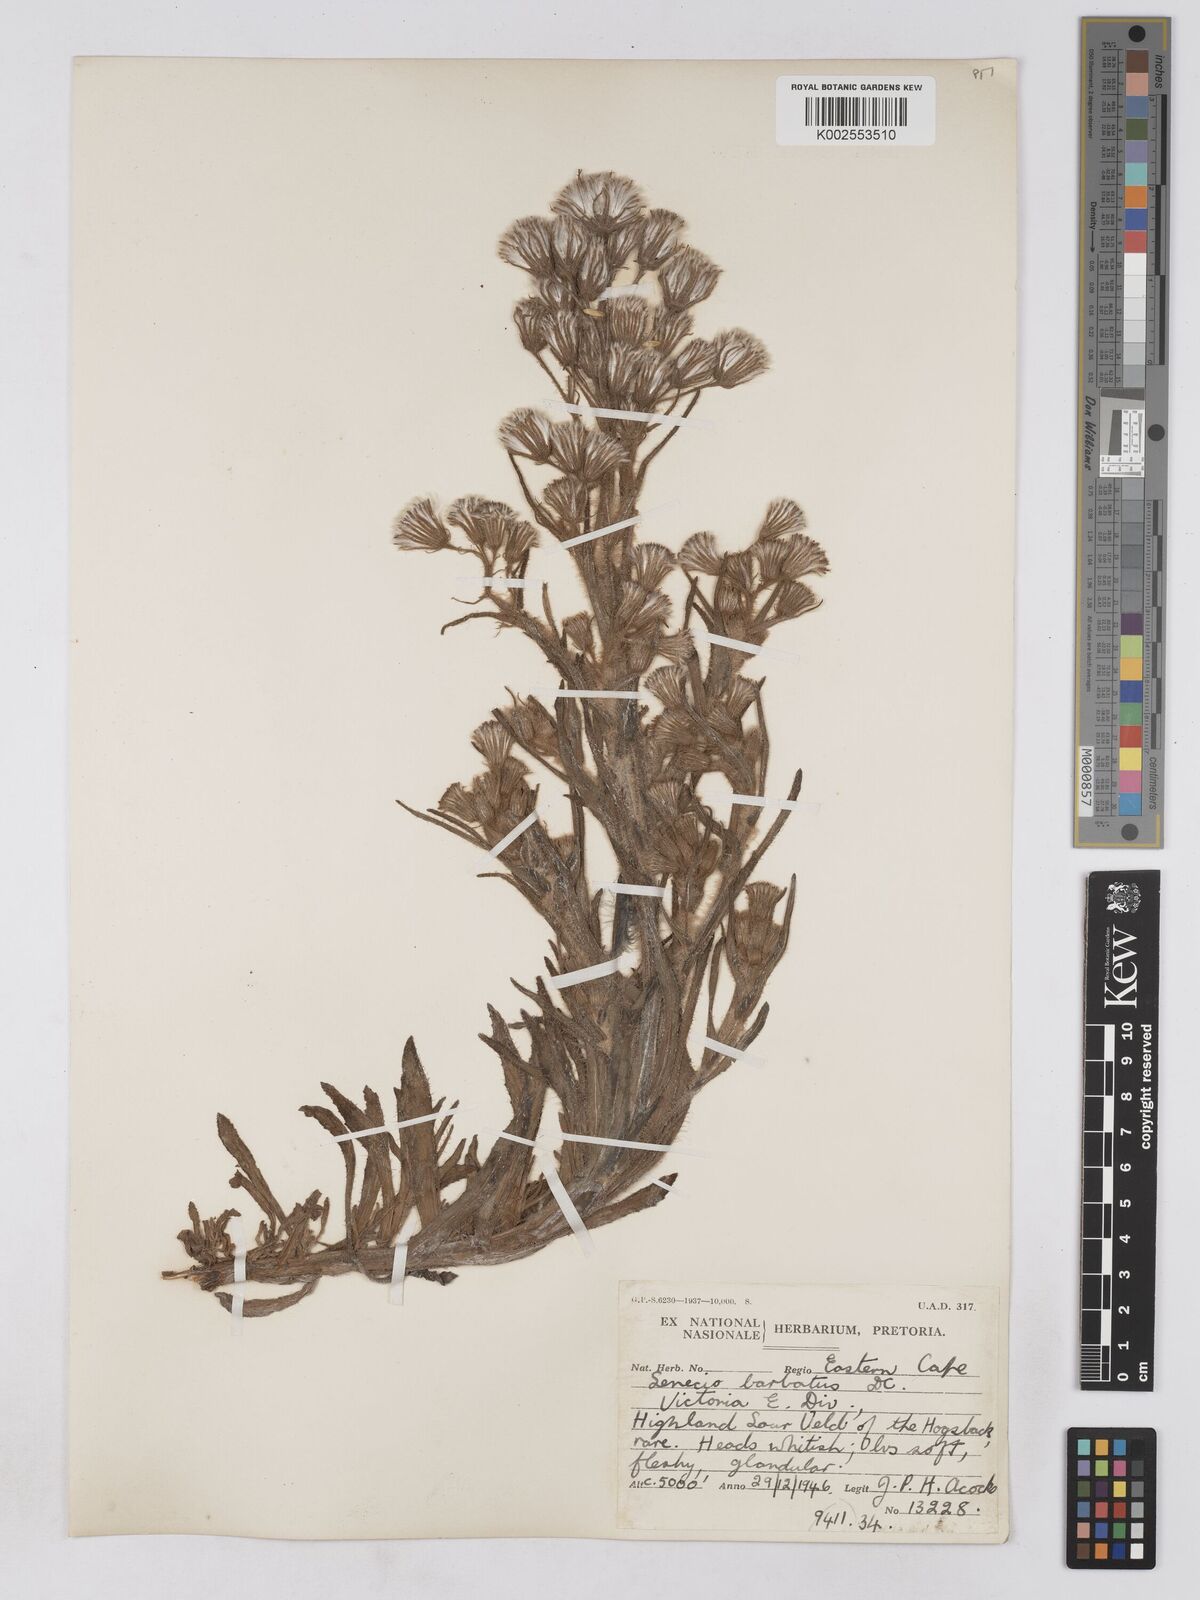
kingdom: Plantae
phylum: Tracheophyta
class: Magnoliopsida
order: Asterales
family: Asteraceae
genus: Senecio
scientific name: Senecio barbatus
